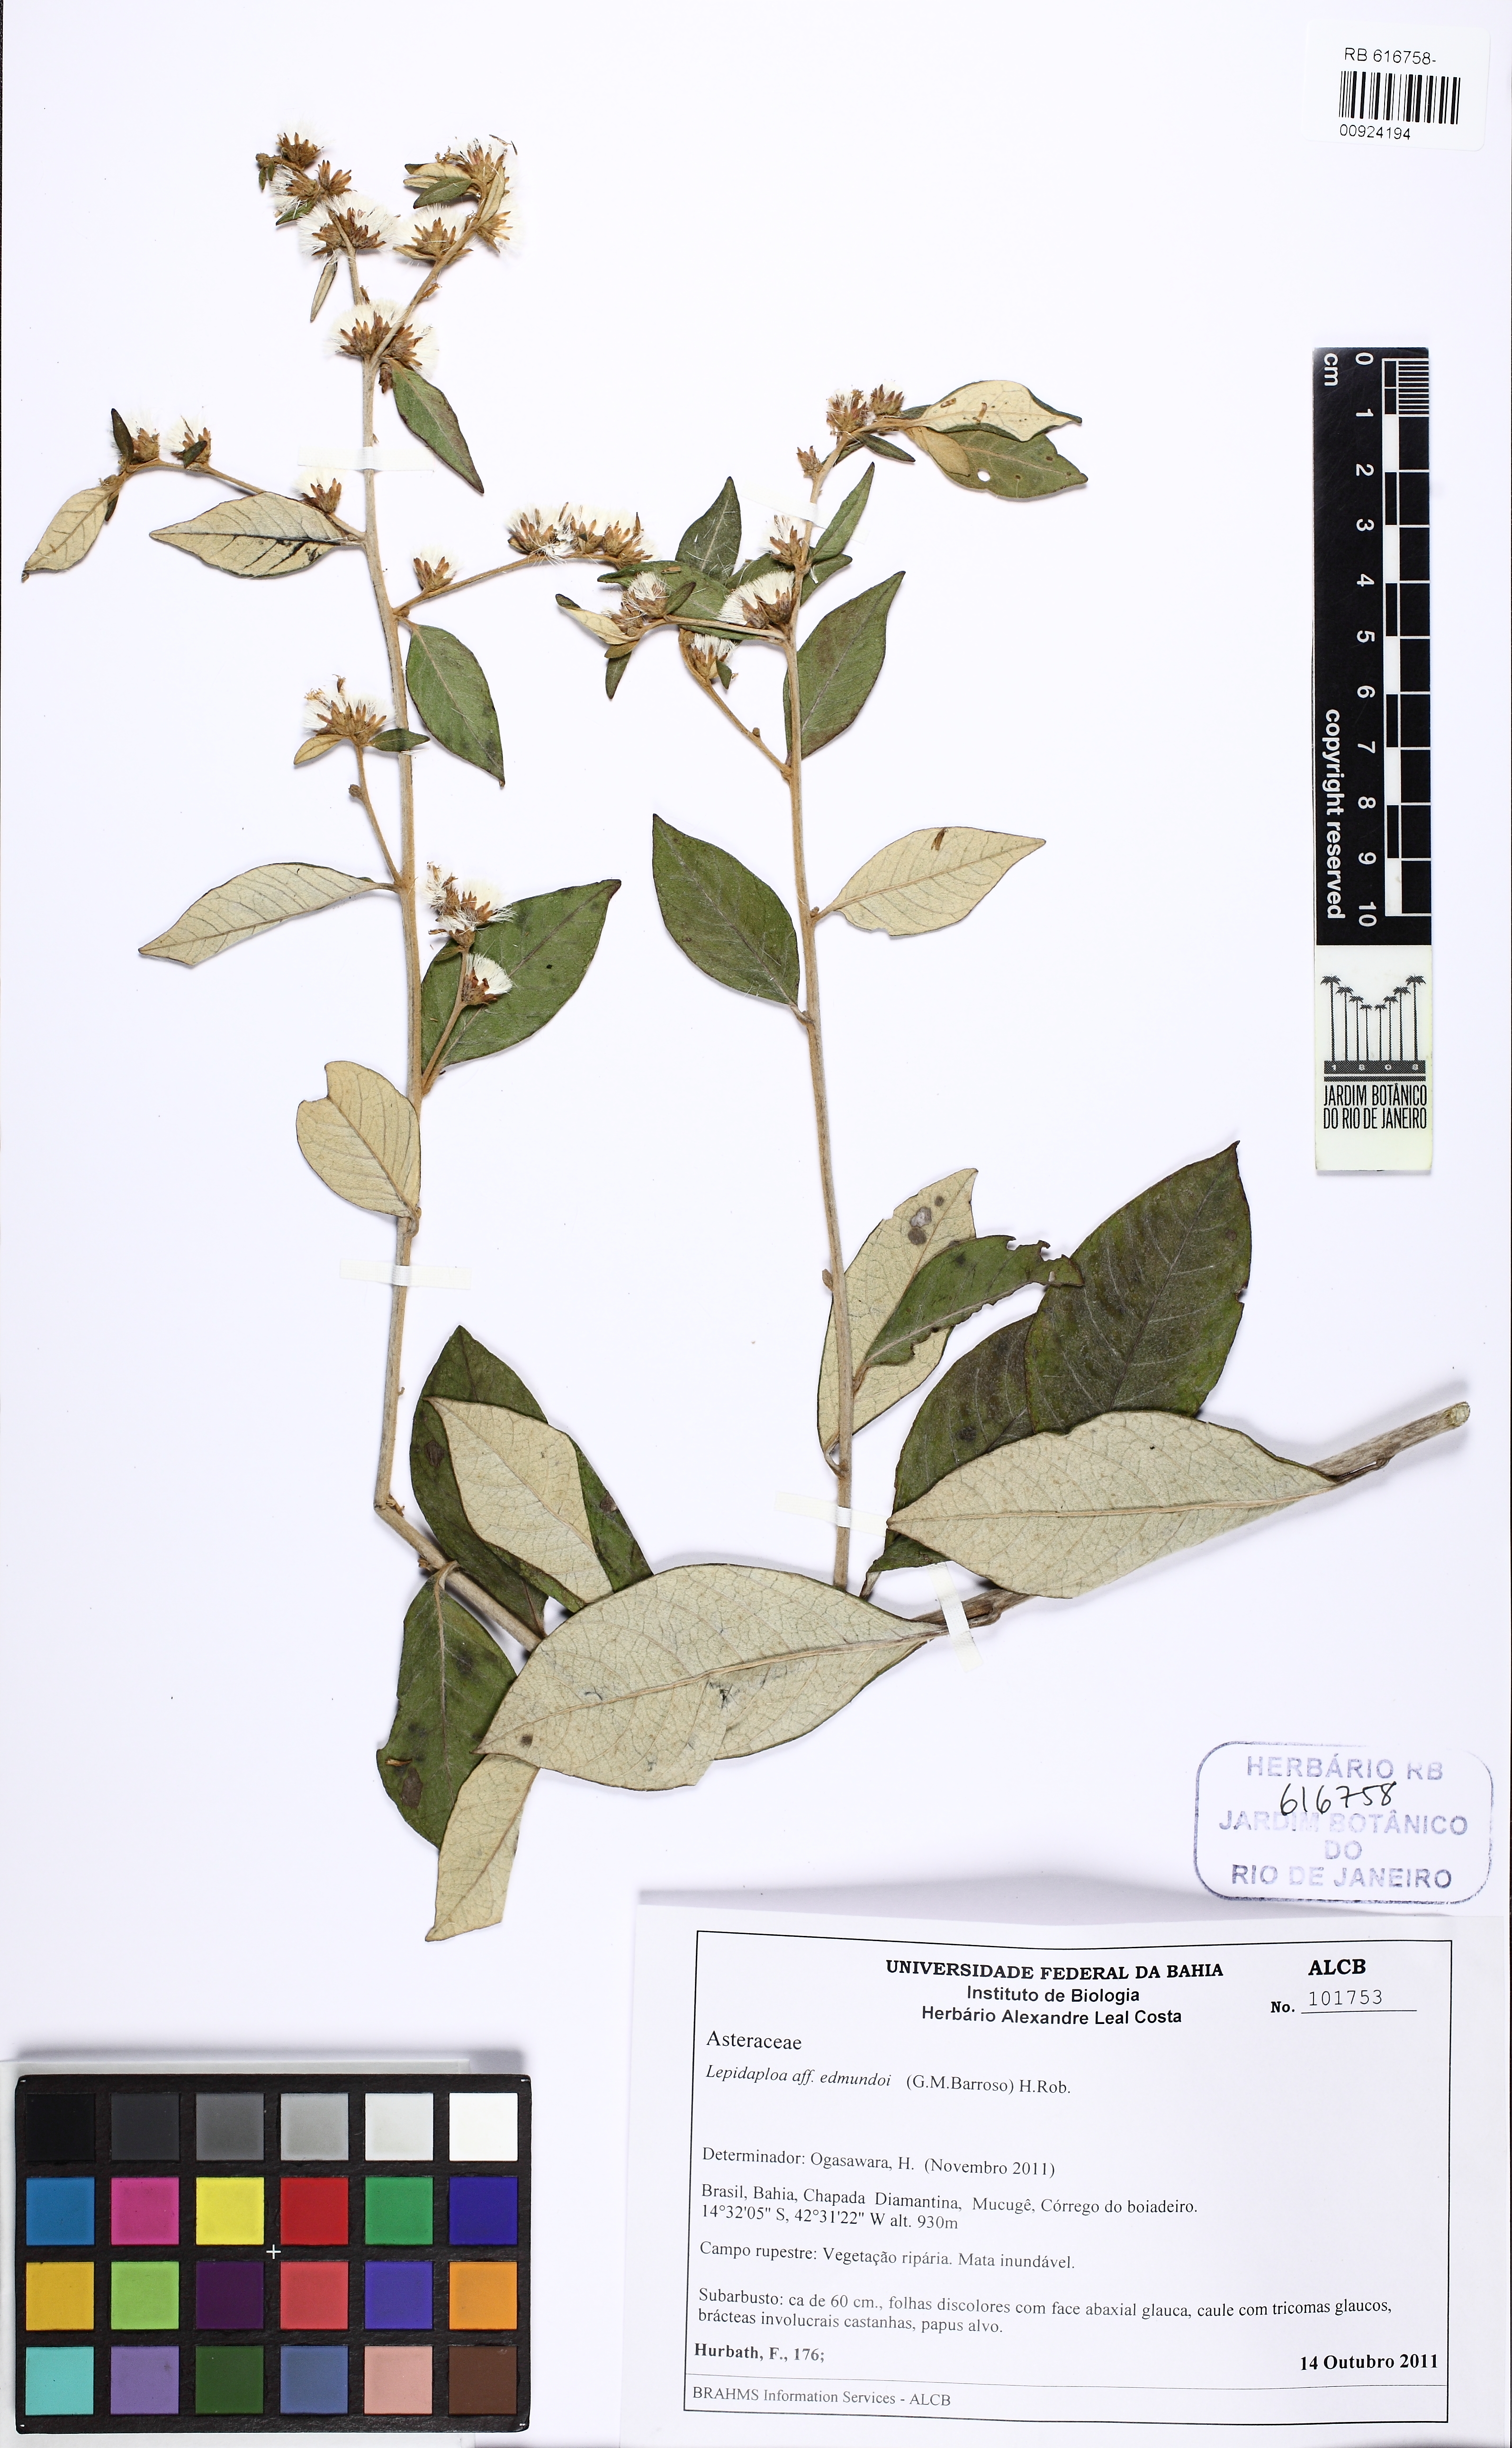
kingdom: Plantae
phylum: Tracheophyta
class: Magnoliopsida
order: Asterales
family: Asteraceae
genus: Lepidaploa
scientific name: Lepidaploa edmundoi
